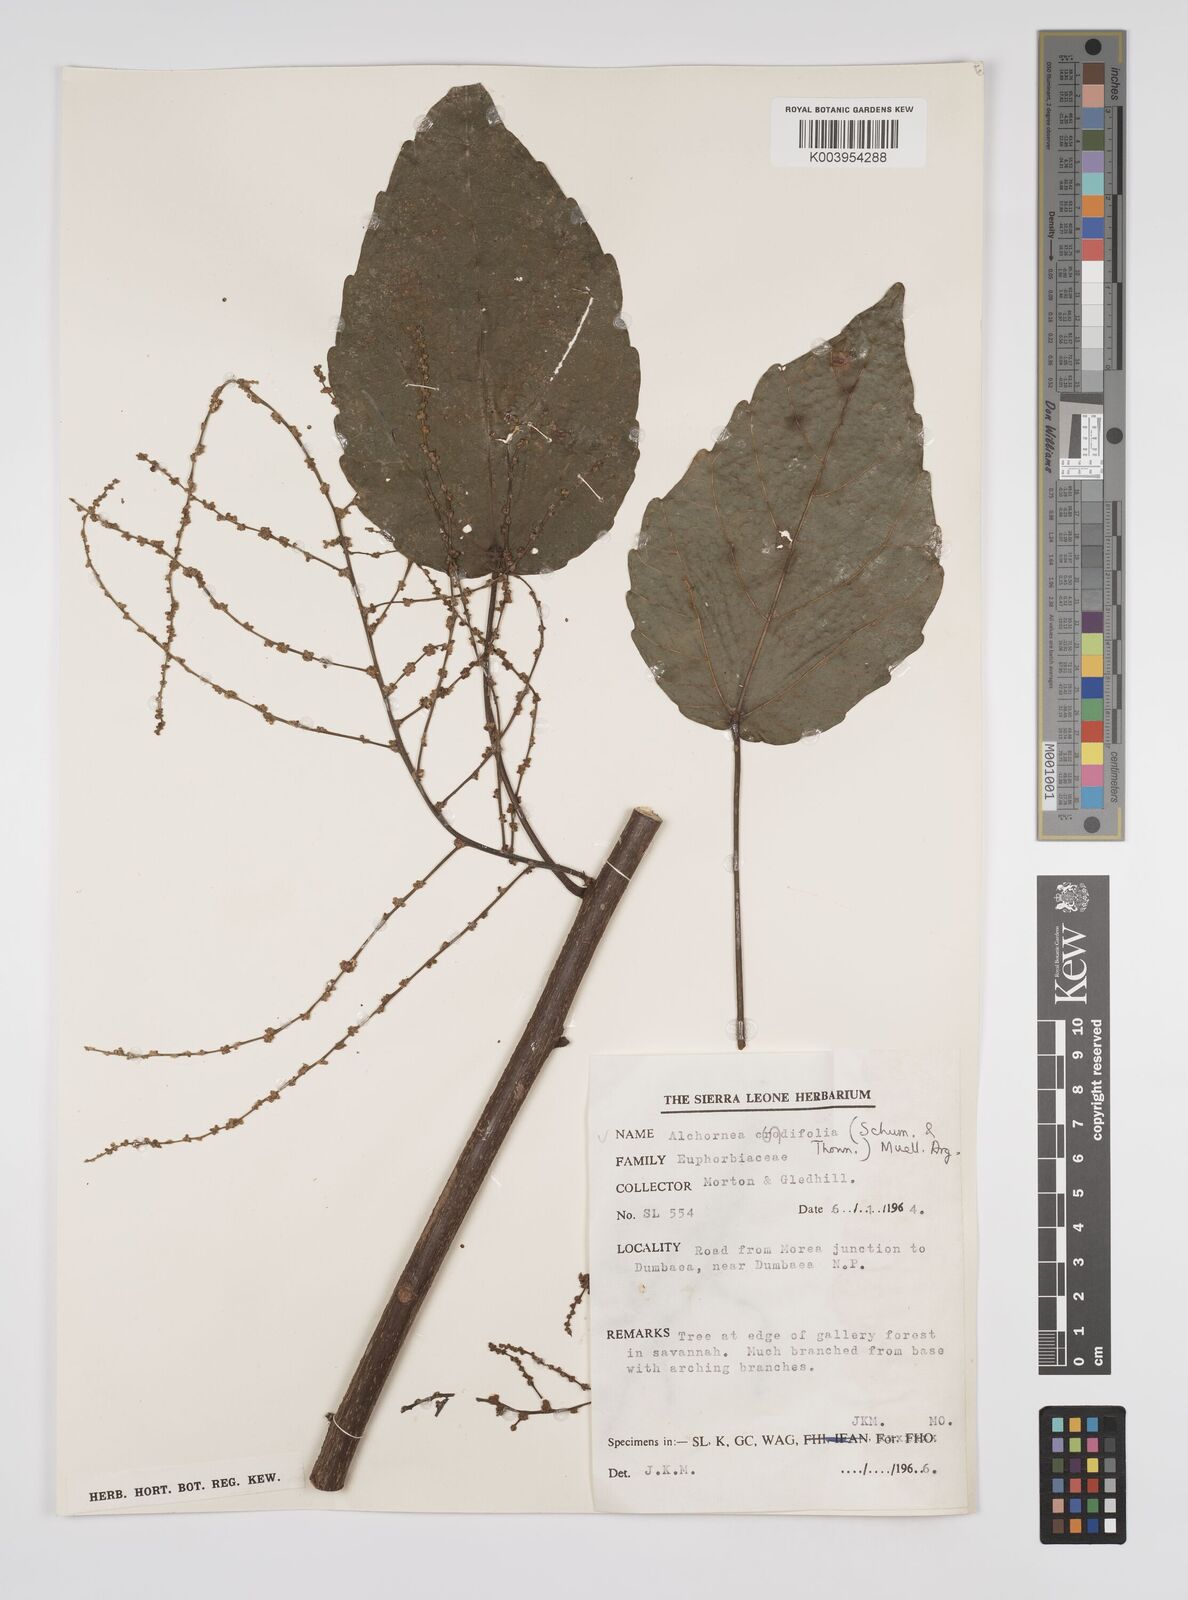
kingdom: Plantae
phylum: Tracheophyta
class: Magnoliopsida
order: Malpighiales
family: Euphorbiaceae
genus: Alchornea
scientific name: Alchornea cordifolia
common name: Christmasbush
